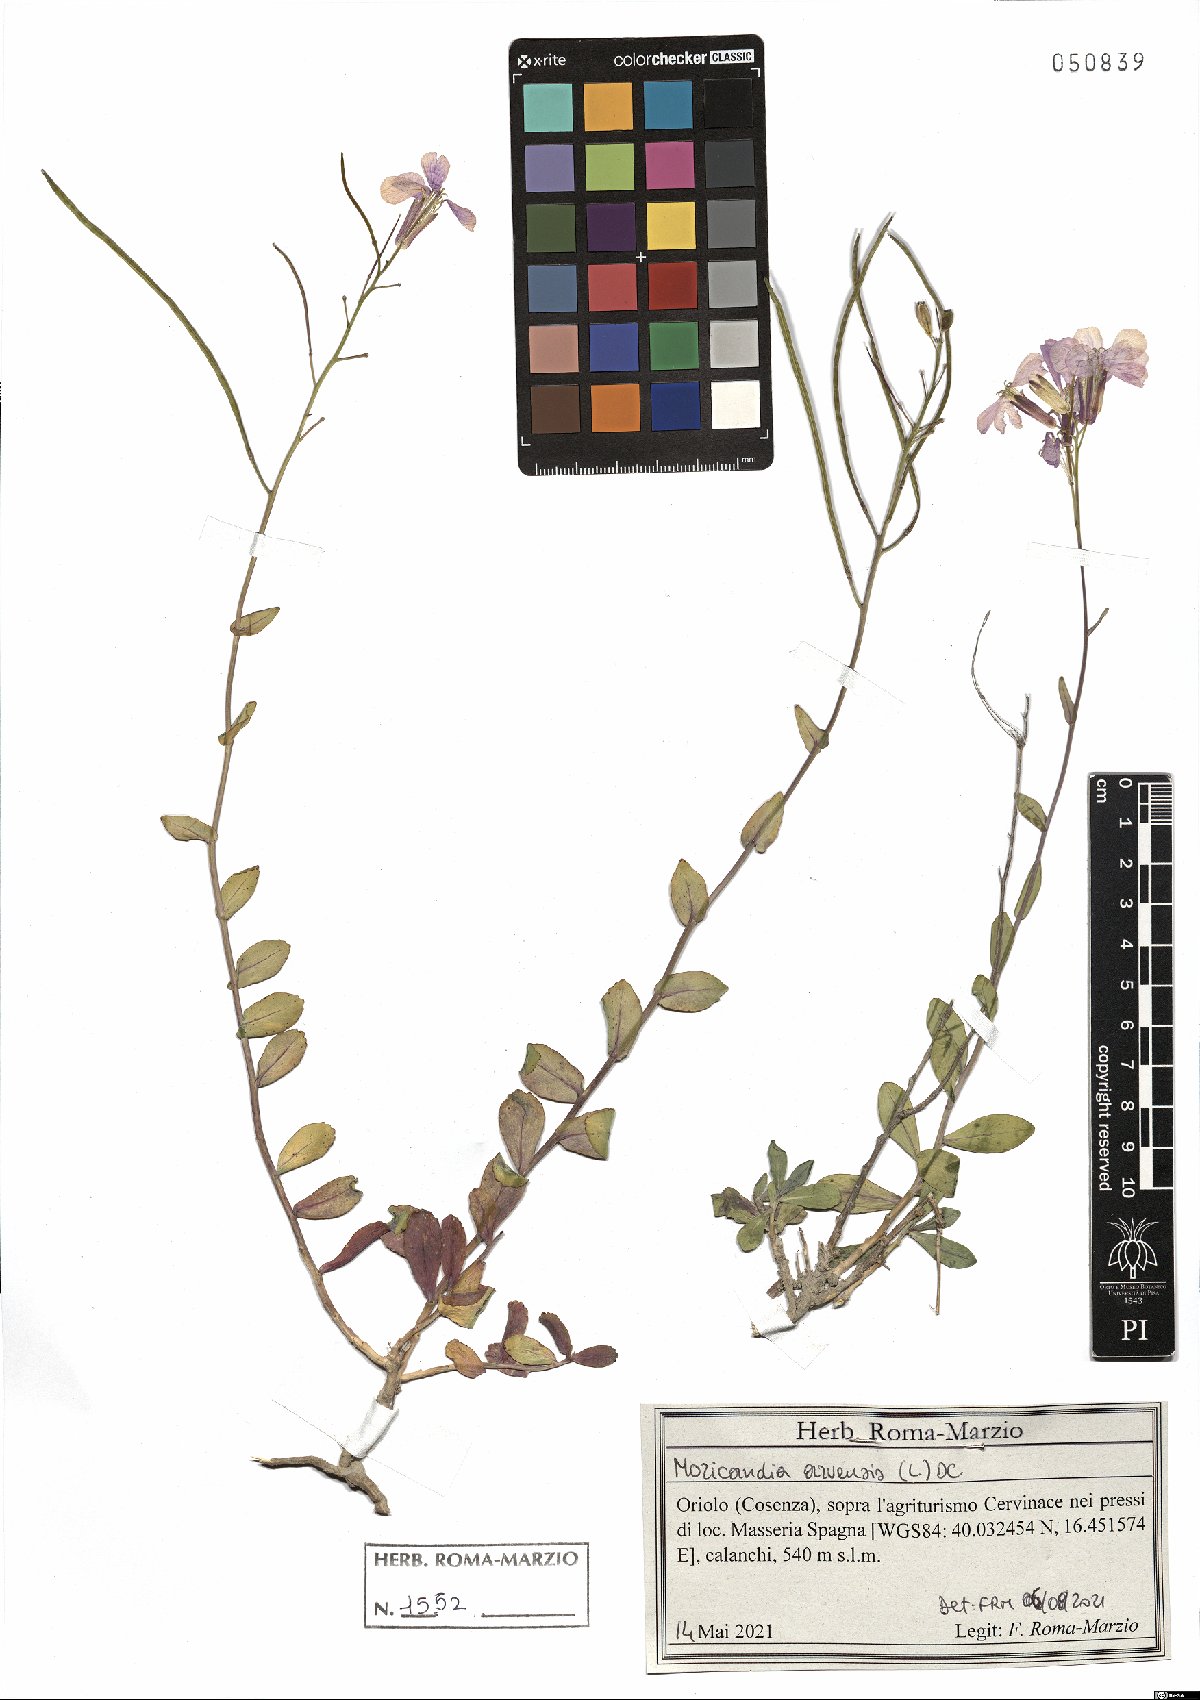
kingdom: Plantae
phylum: Tracheophyta
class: Magnoliopsida
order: Brassicales
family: Brassicaceae
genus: Moricandia
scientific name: Moricandia arvensis
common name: Purple mistress
